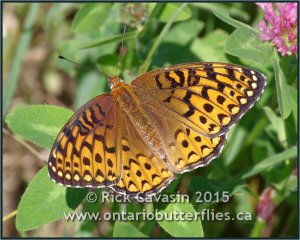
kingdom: Animalia
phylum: Arthropoda
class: Insecta
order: Lepidoptera
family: Nymphalidae
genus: Speyeria
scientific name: Speyeria atlantis
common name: Atlantis Fritillary
